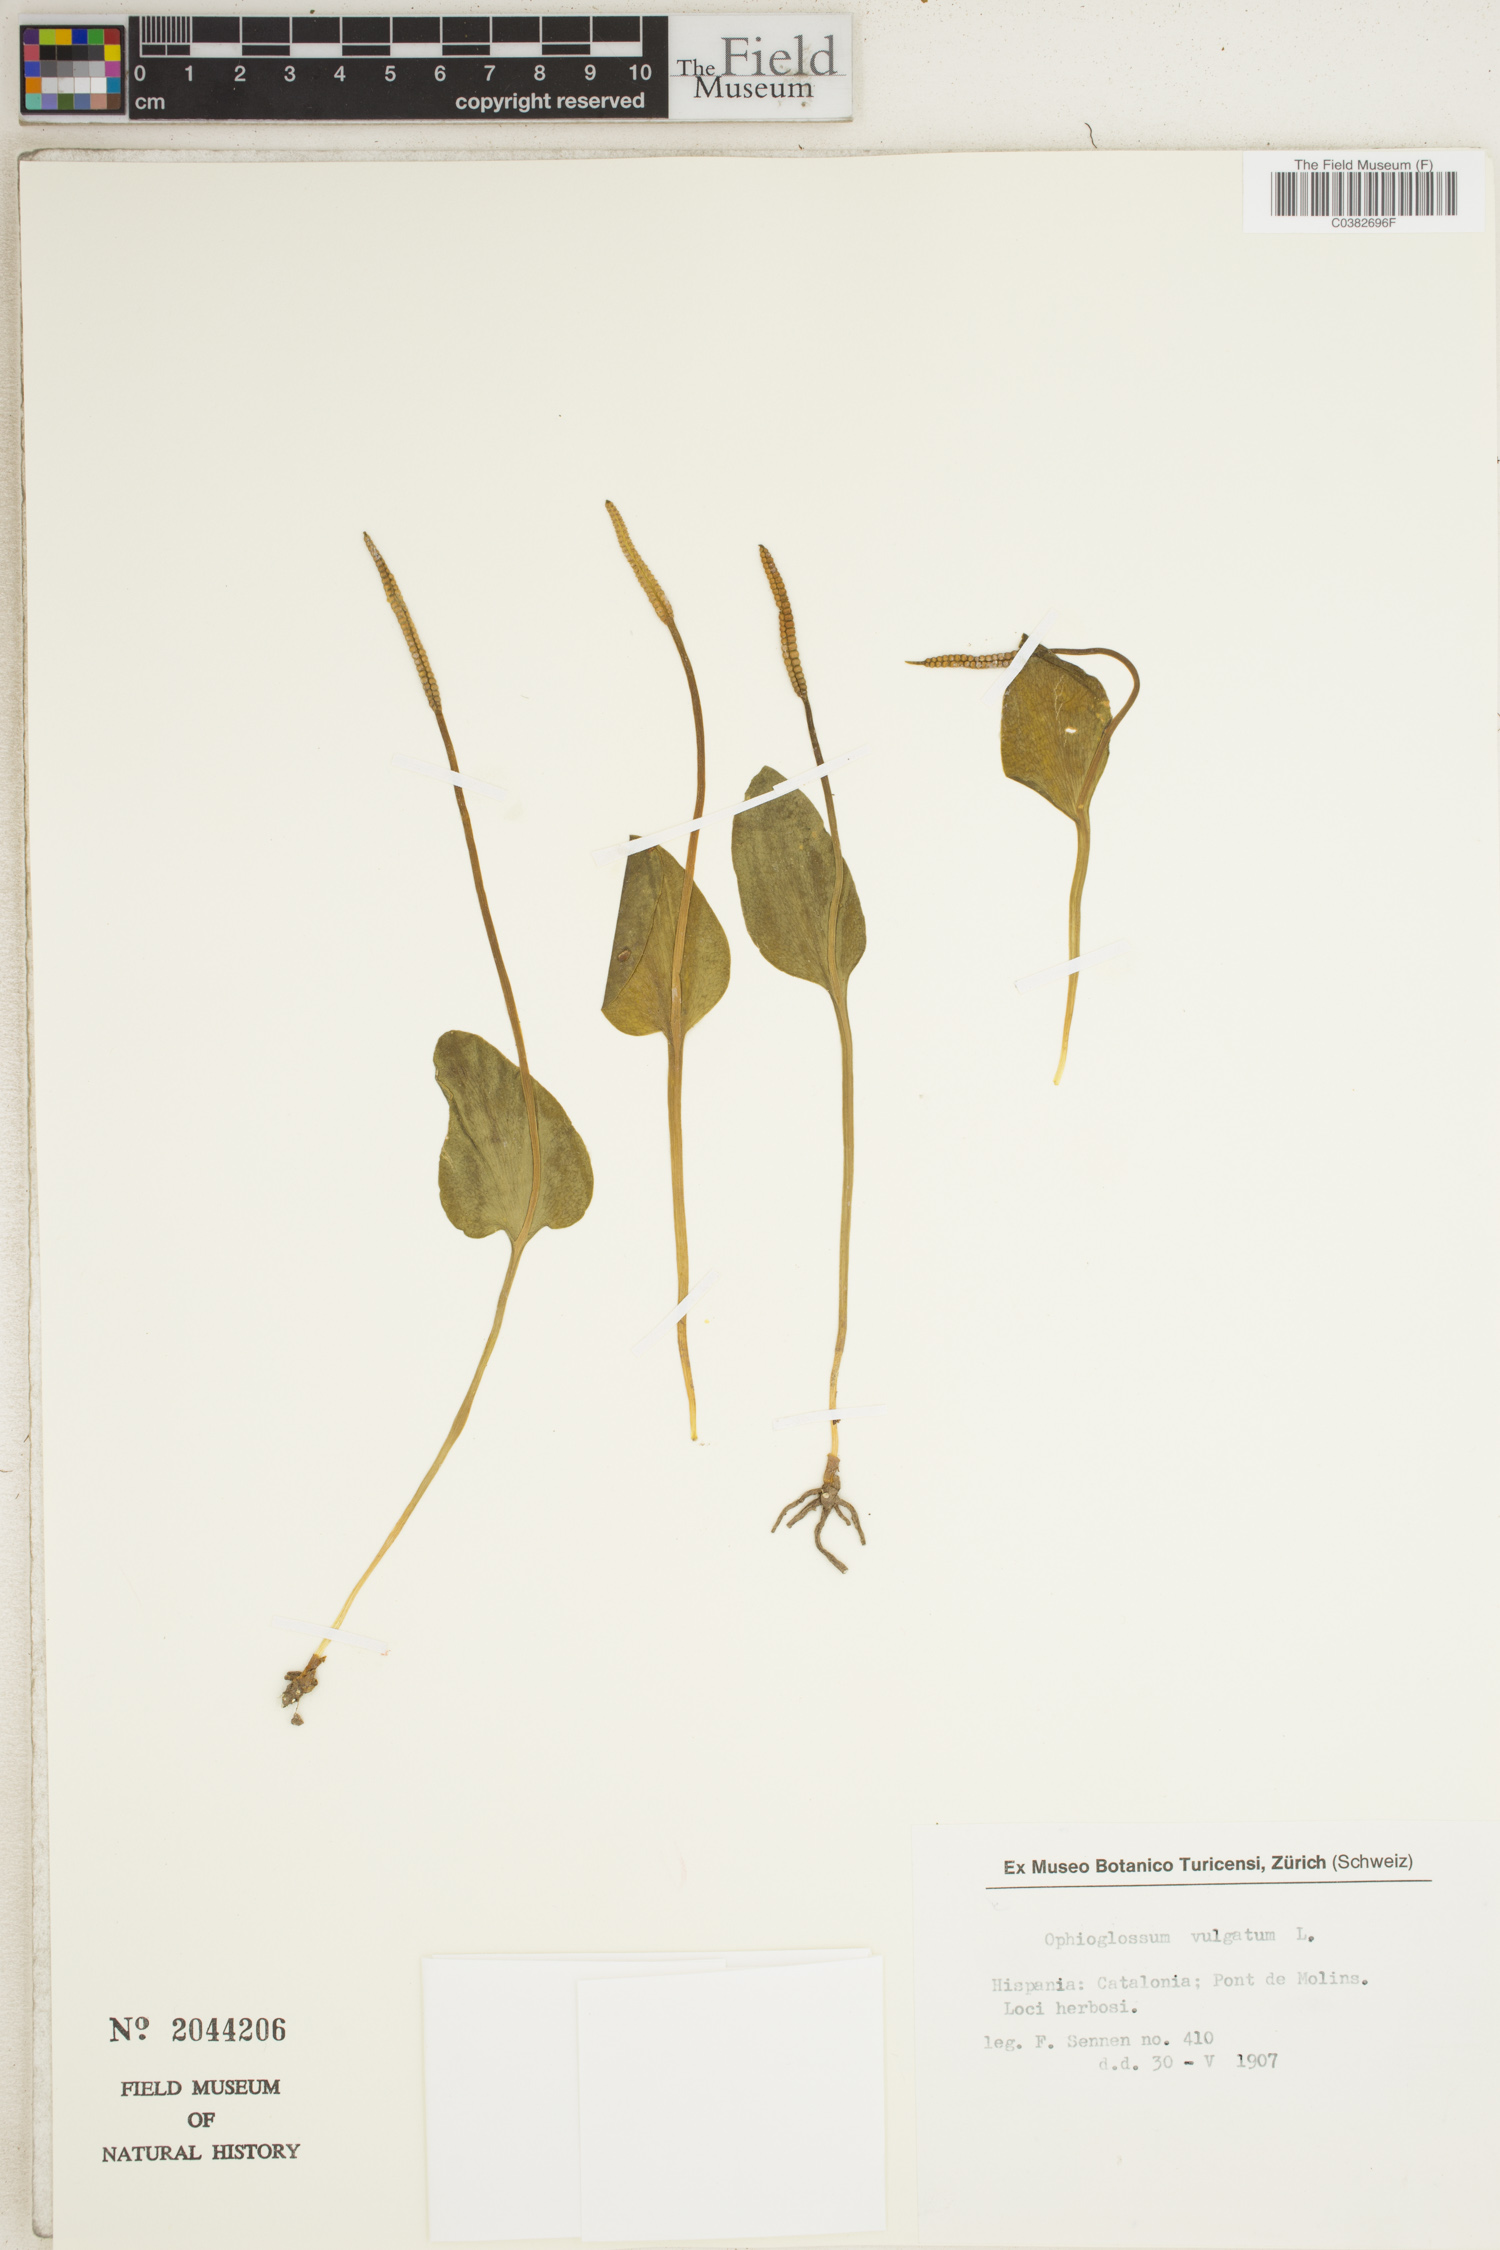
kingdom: Plantae
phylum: Tracheophyta
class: Polypodiopsida
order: Ophioglossales
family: Ophioglossaceae
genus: Ophioglossum
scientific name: Ophioglossum vulgatum
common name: Adder's-tongue
